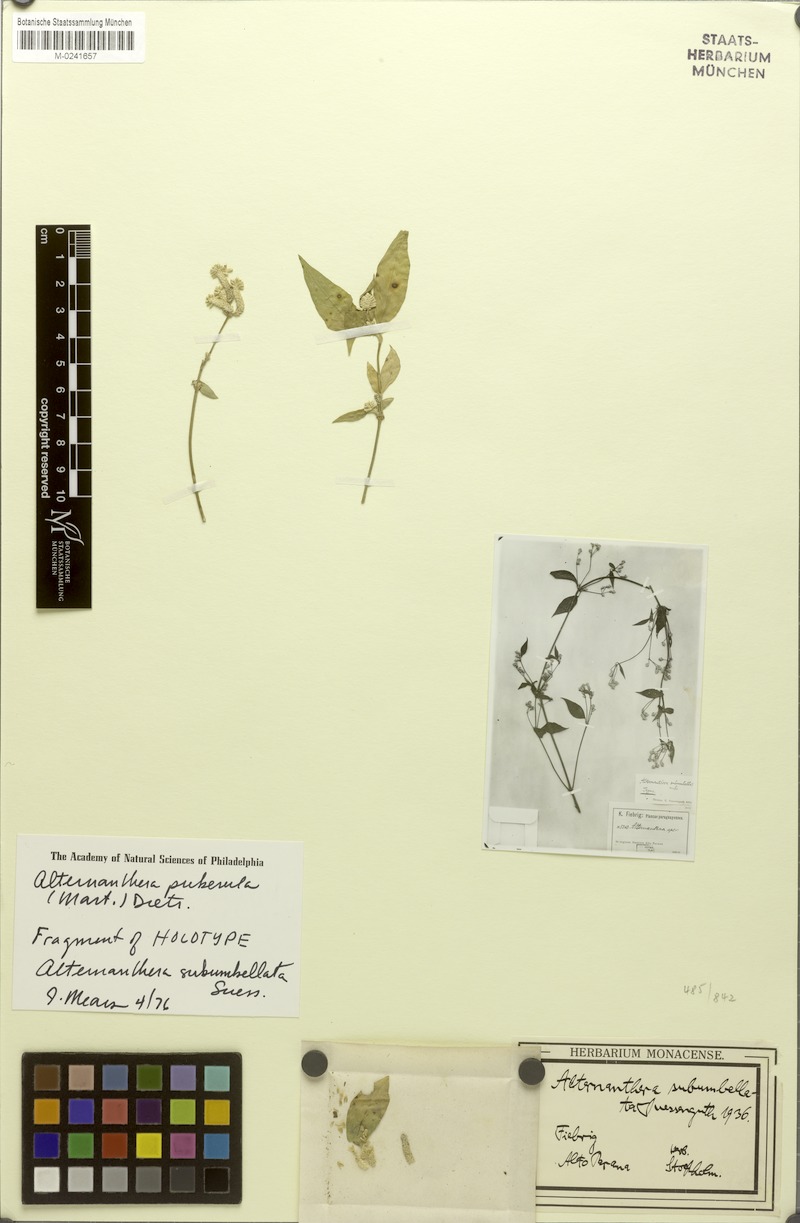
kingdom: Plantae
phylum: Tracheophyta
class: Magnoliopsida
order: Caryophyllales
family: Amaranthaceae
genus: Alternanthera
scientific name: Alternanthera puberula
